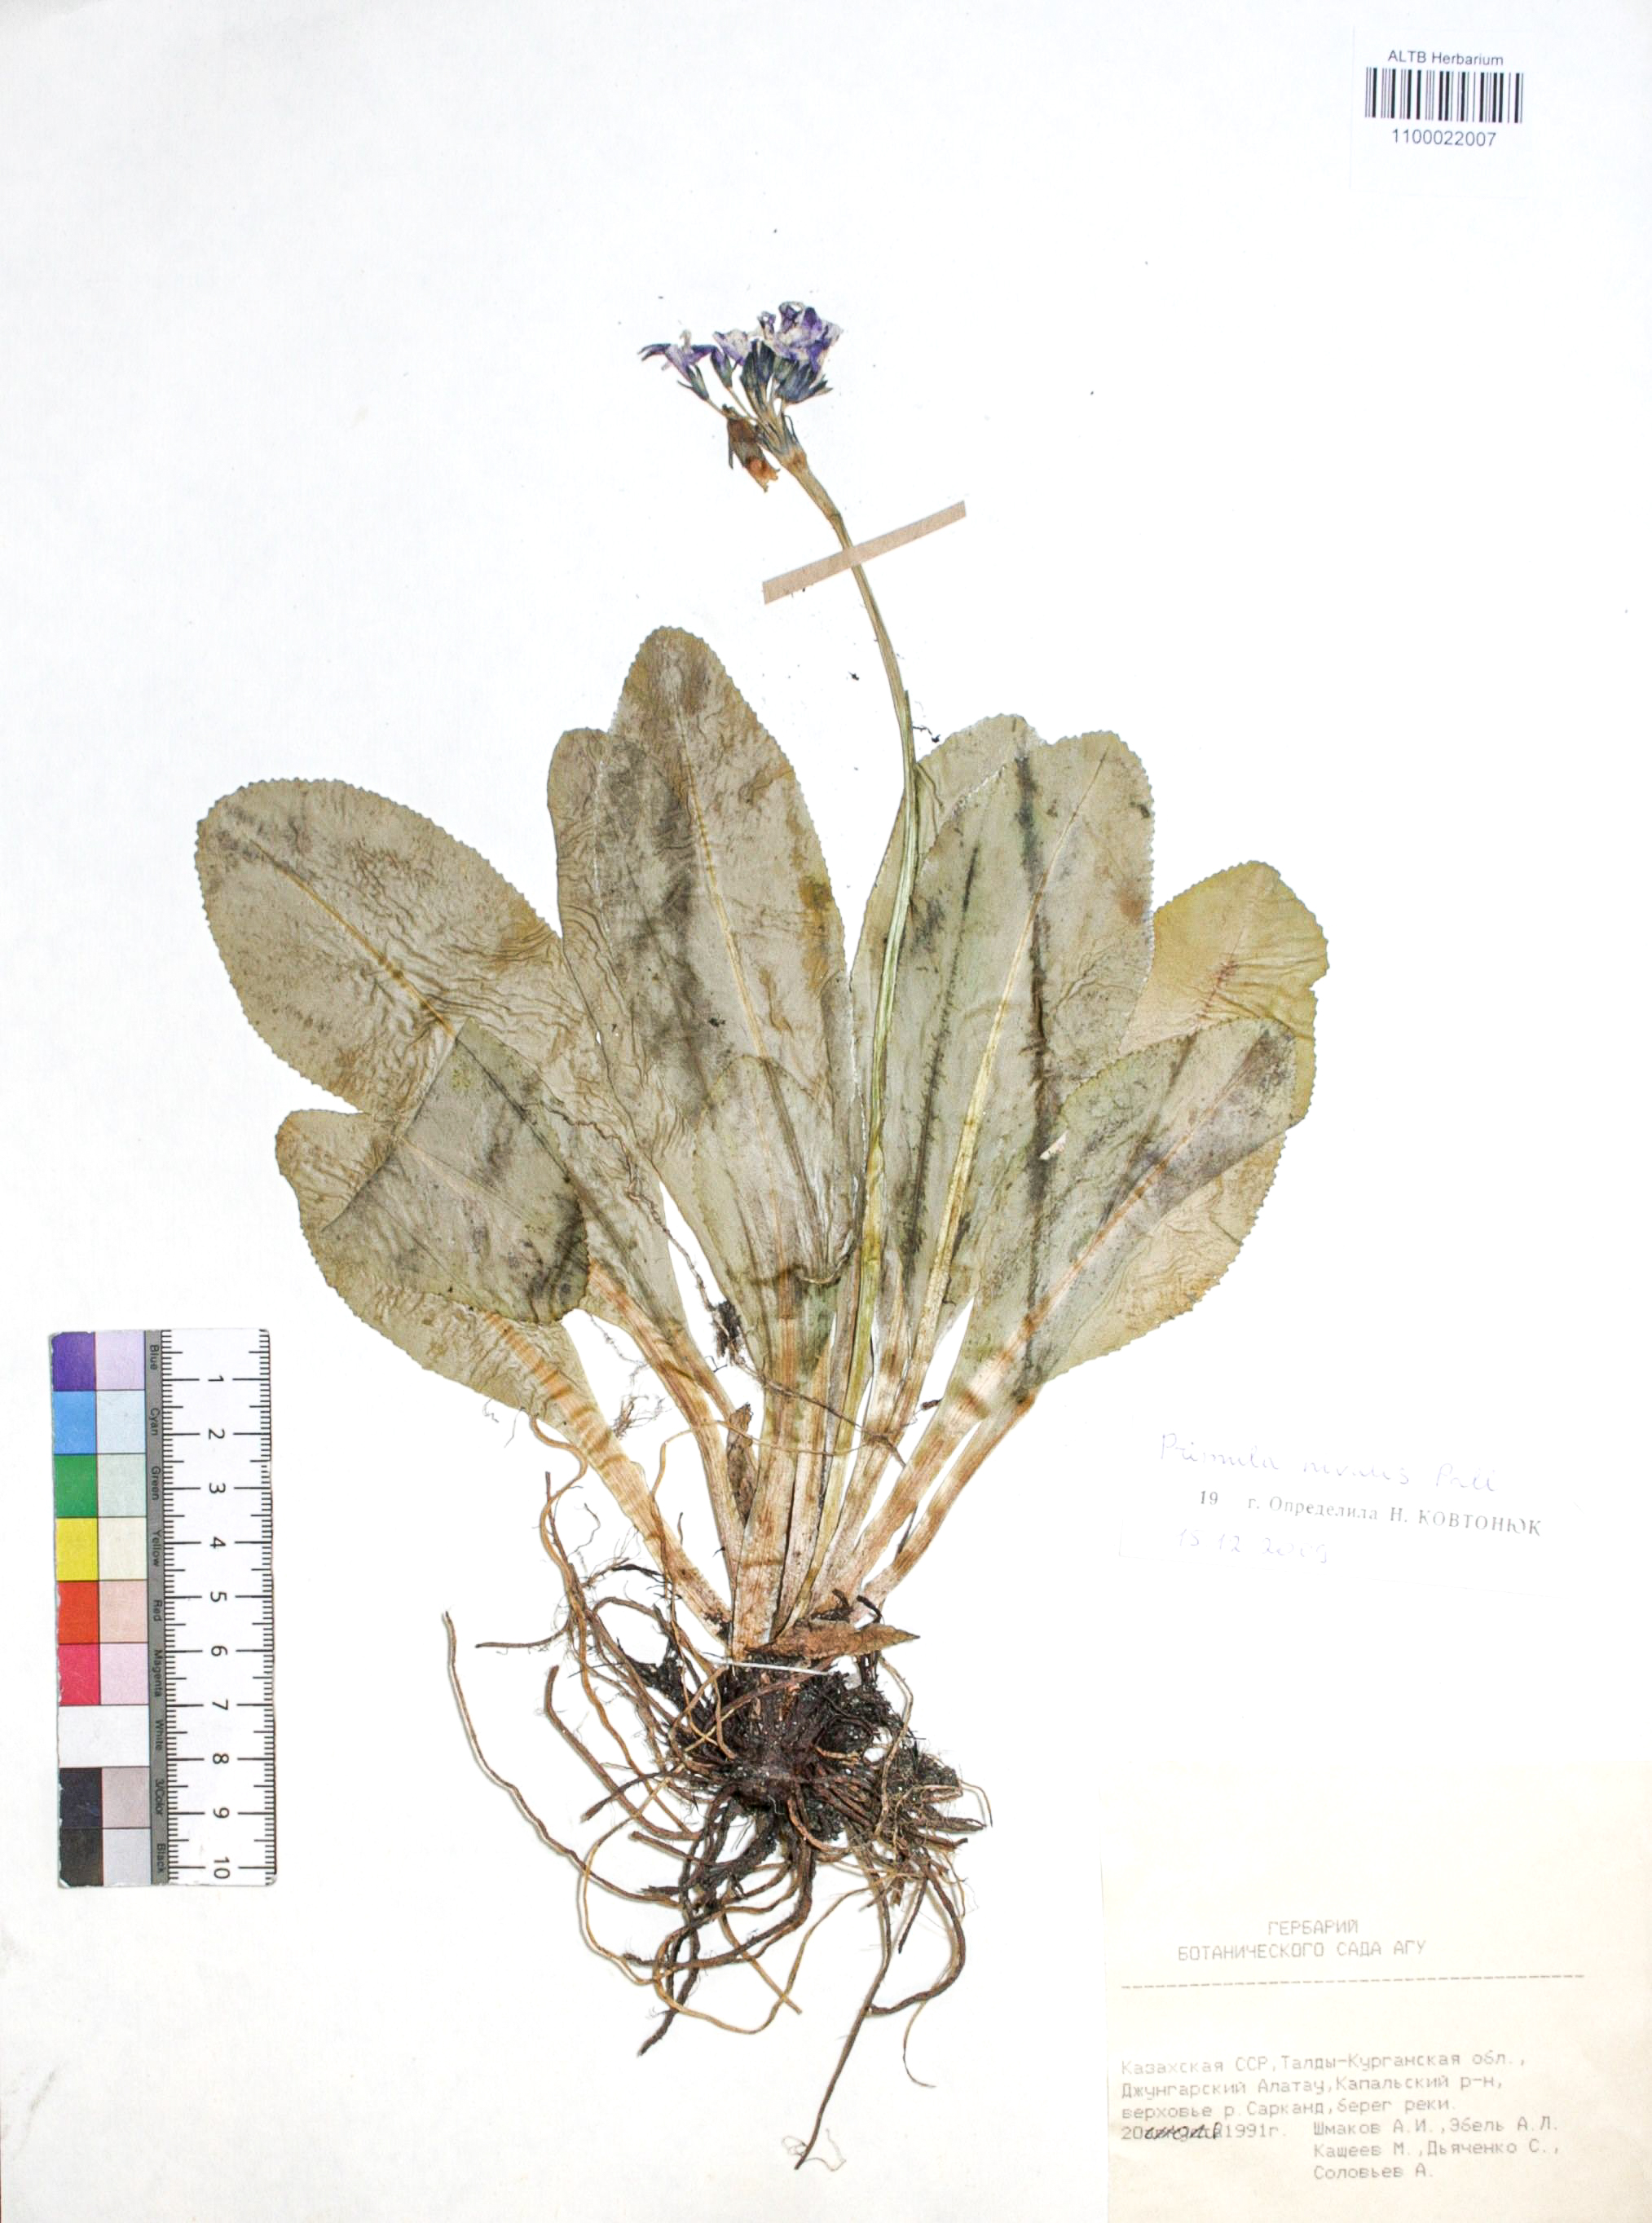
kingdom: Plantae
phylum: Tracheophyta
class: Magnoliopsida
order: Ericales
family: Primulaceae
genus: Primula
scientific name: Primula nivalis
